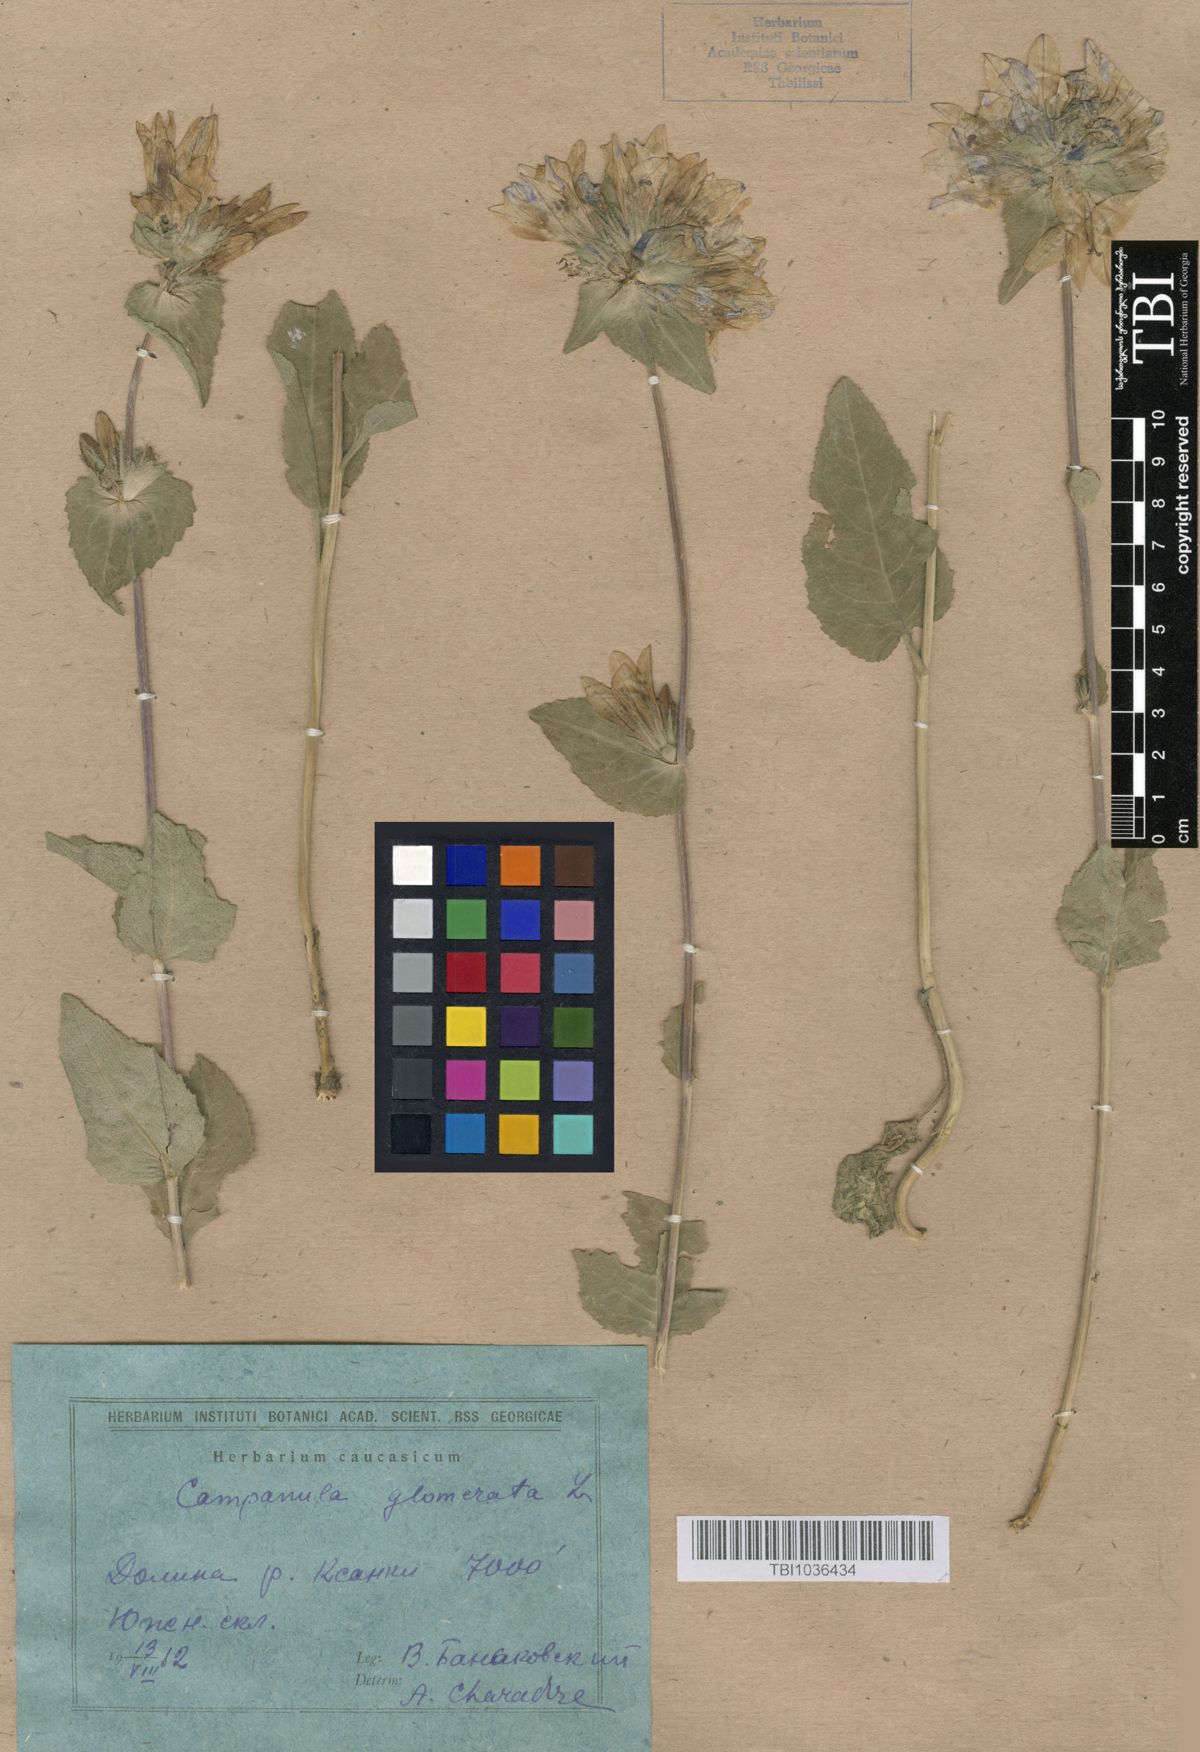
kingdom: Plantae
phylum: Tracheophyta
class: Magnoliopsida
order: Asterales
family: Campanulaceae
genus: Campanula
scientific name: Campanula glomerata
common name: Clustered bellflower
